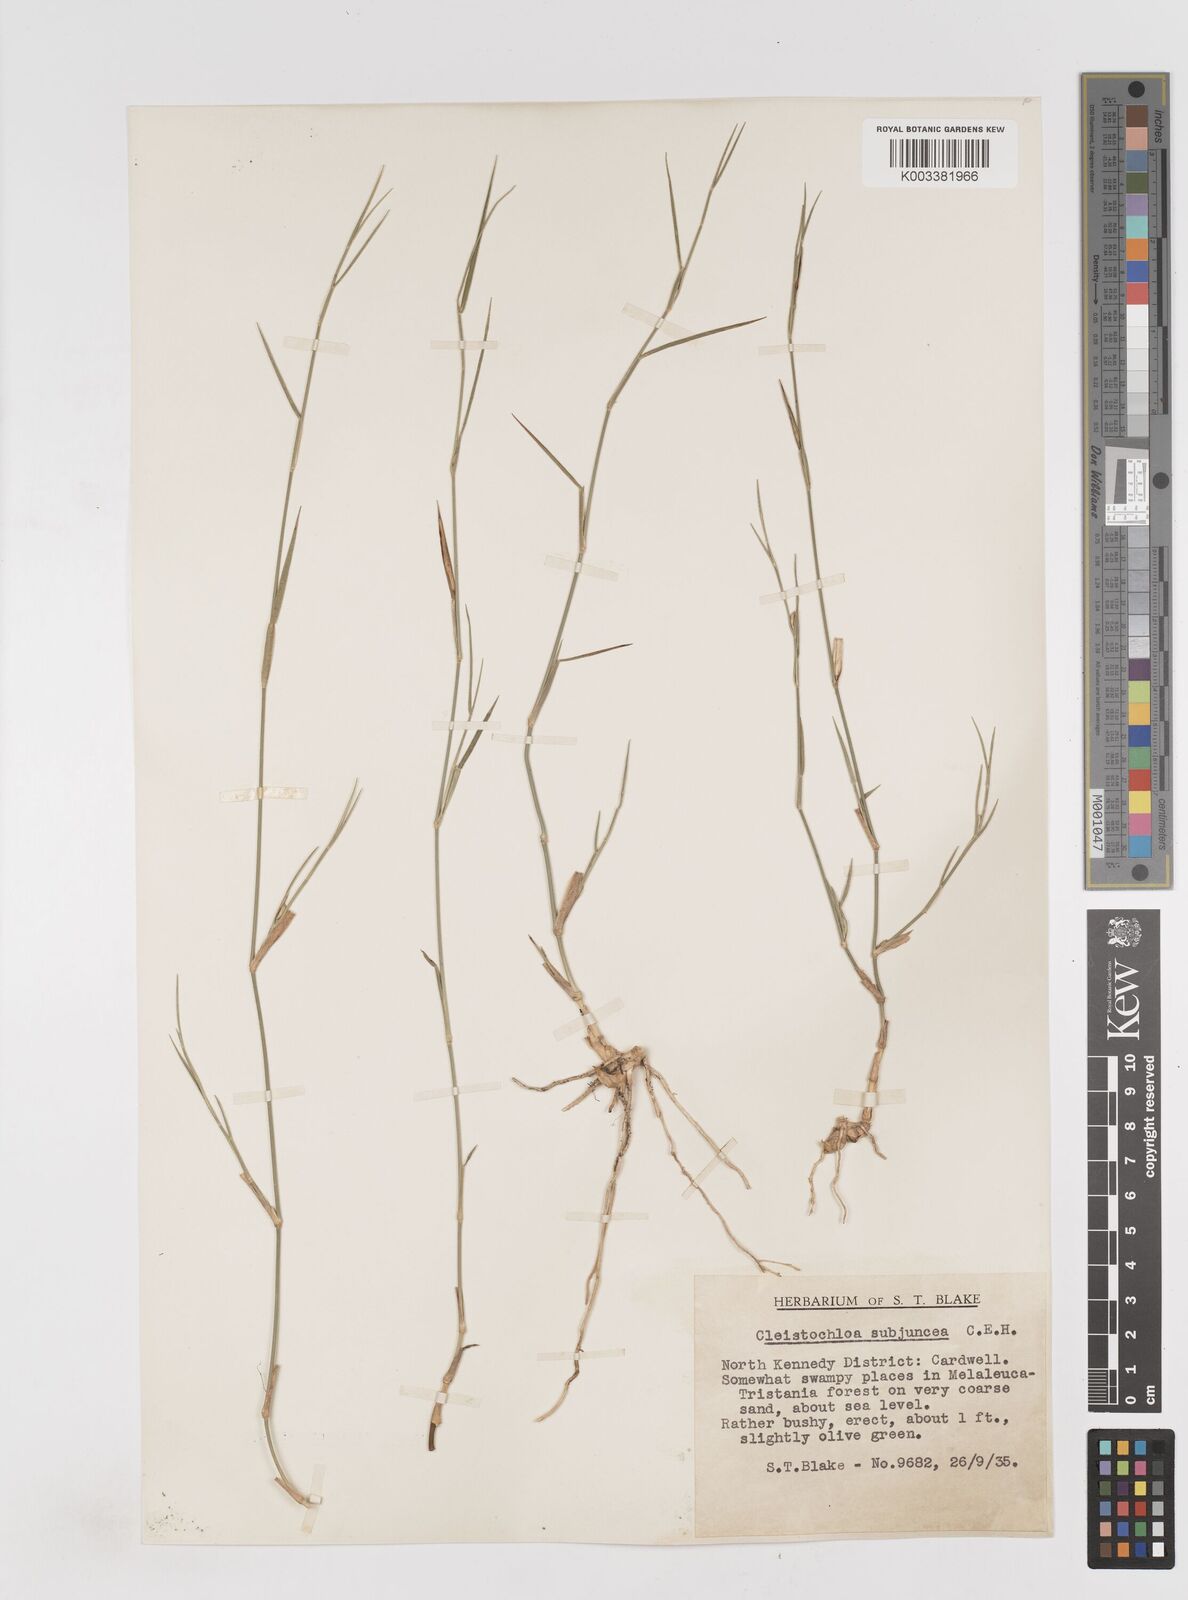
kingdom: Plantae
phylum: Tracheophyta
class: Liliopsida
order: Poales
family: Poaceae
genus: Cleistochloa
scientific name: Cleistochloa subjuncea
